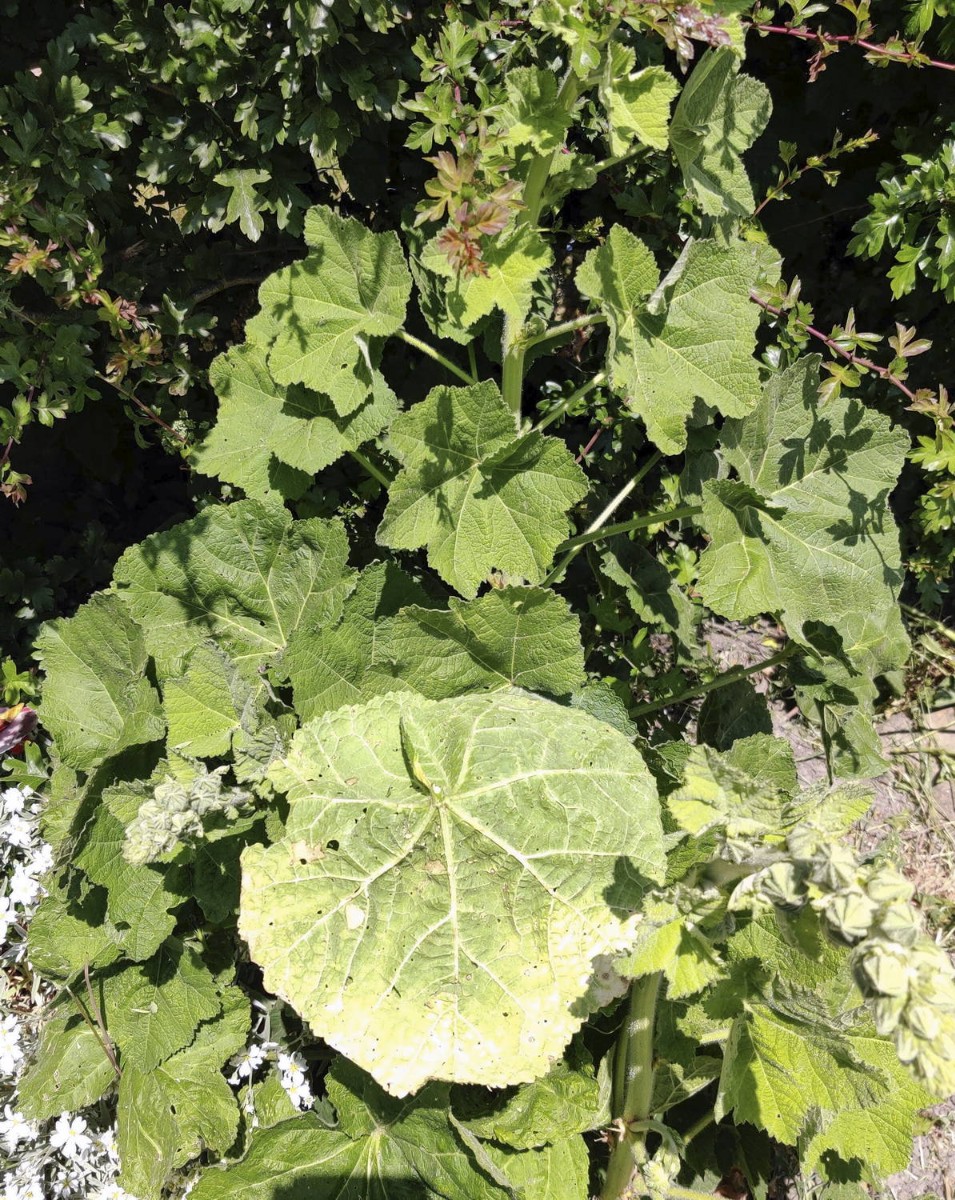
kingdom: Fungi
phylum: Basidiomycota
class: Pucciniomycetes
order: Pucciniales
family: Pucciniaceae
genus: Puccinia
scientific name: Puccinia malvacearum
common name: stokrose-tvecellerust
